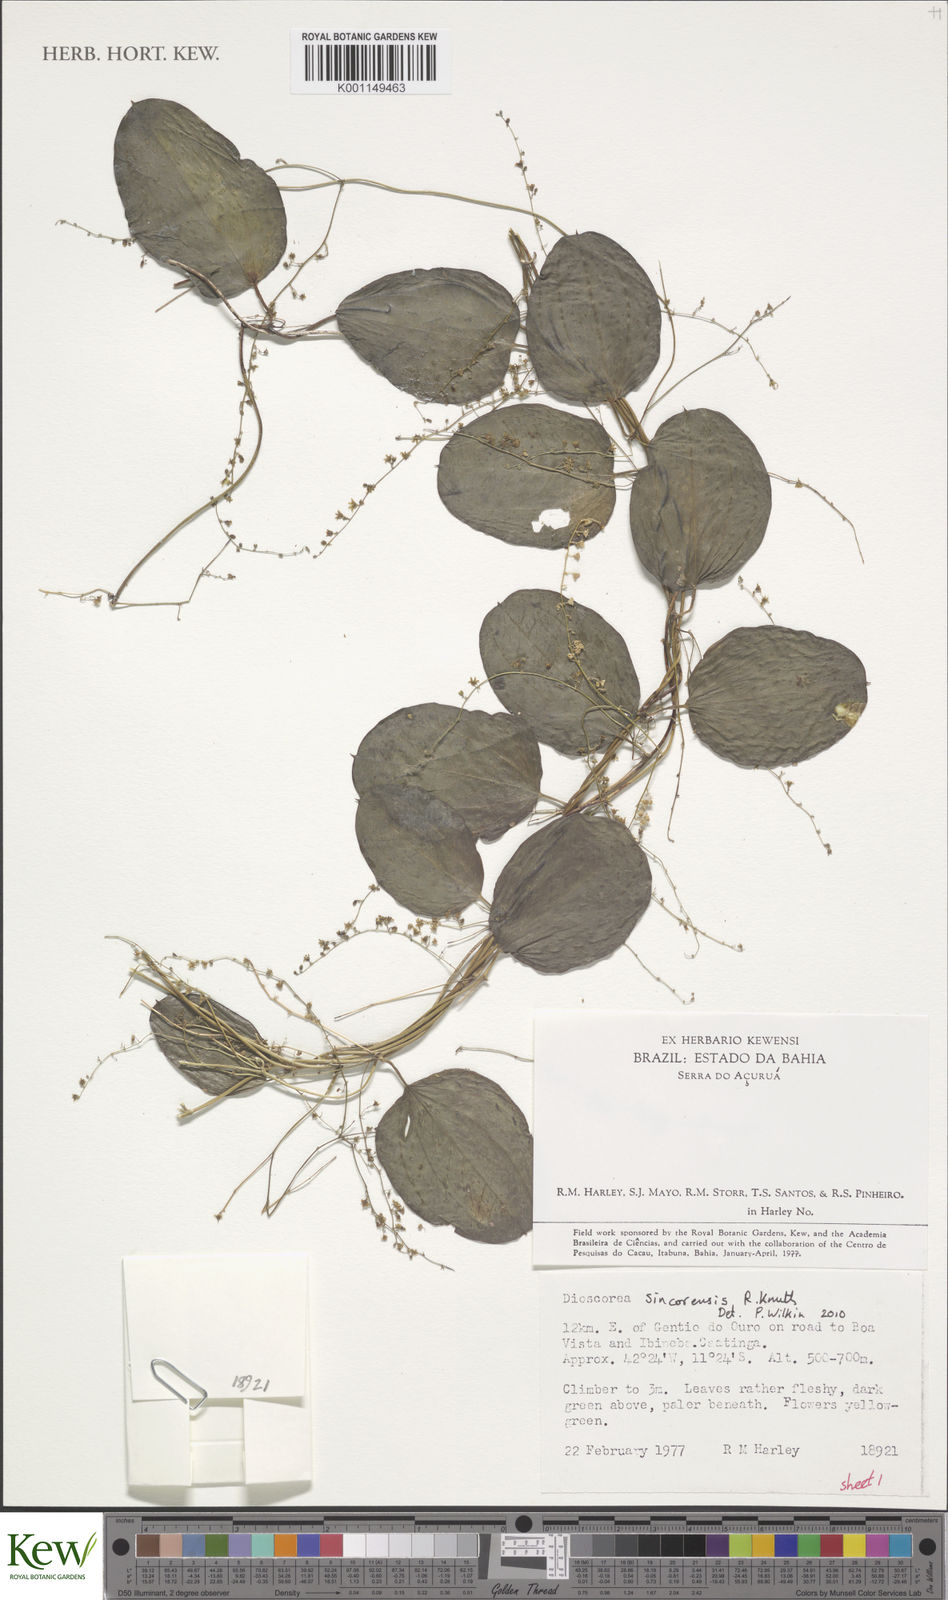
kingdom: Plantae
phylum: Tracheophyta
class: Liliopsida
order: Dioscoreales
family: Dioscoreaceae
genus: Dioscorea
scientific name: Dioscorea campestris
